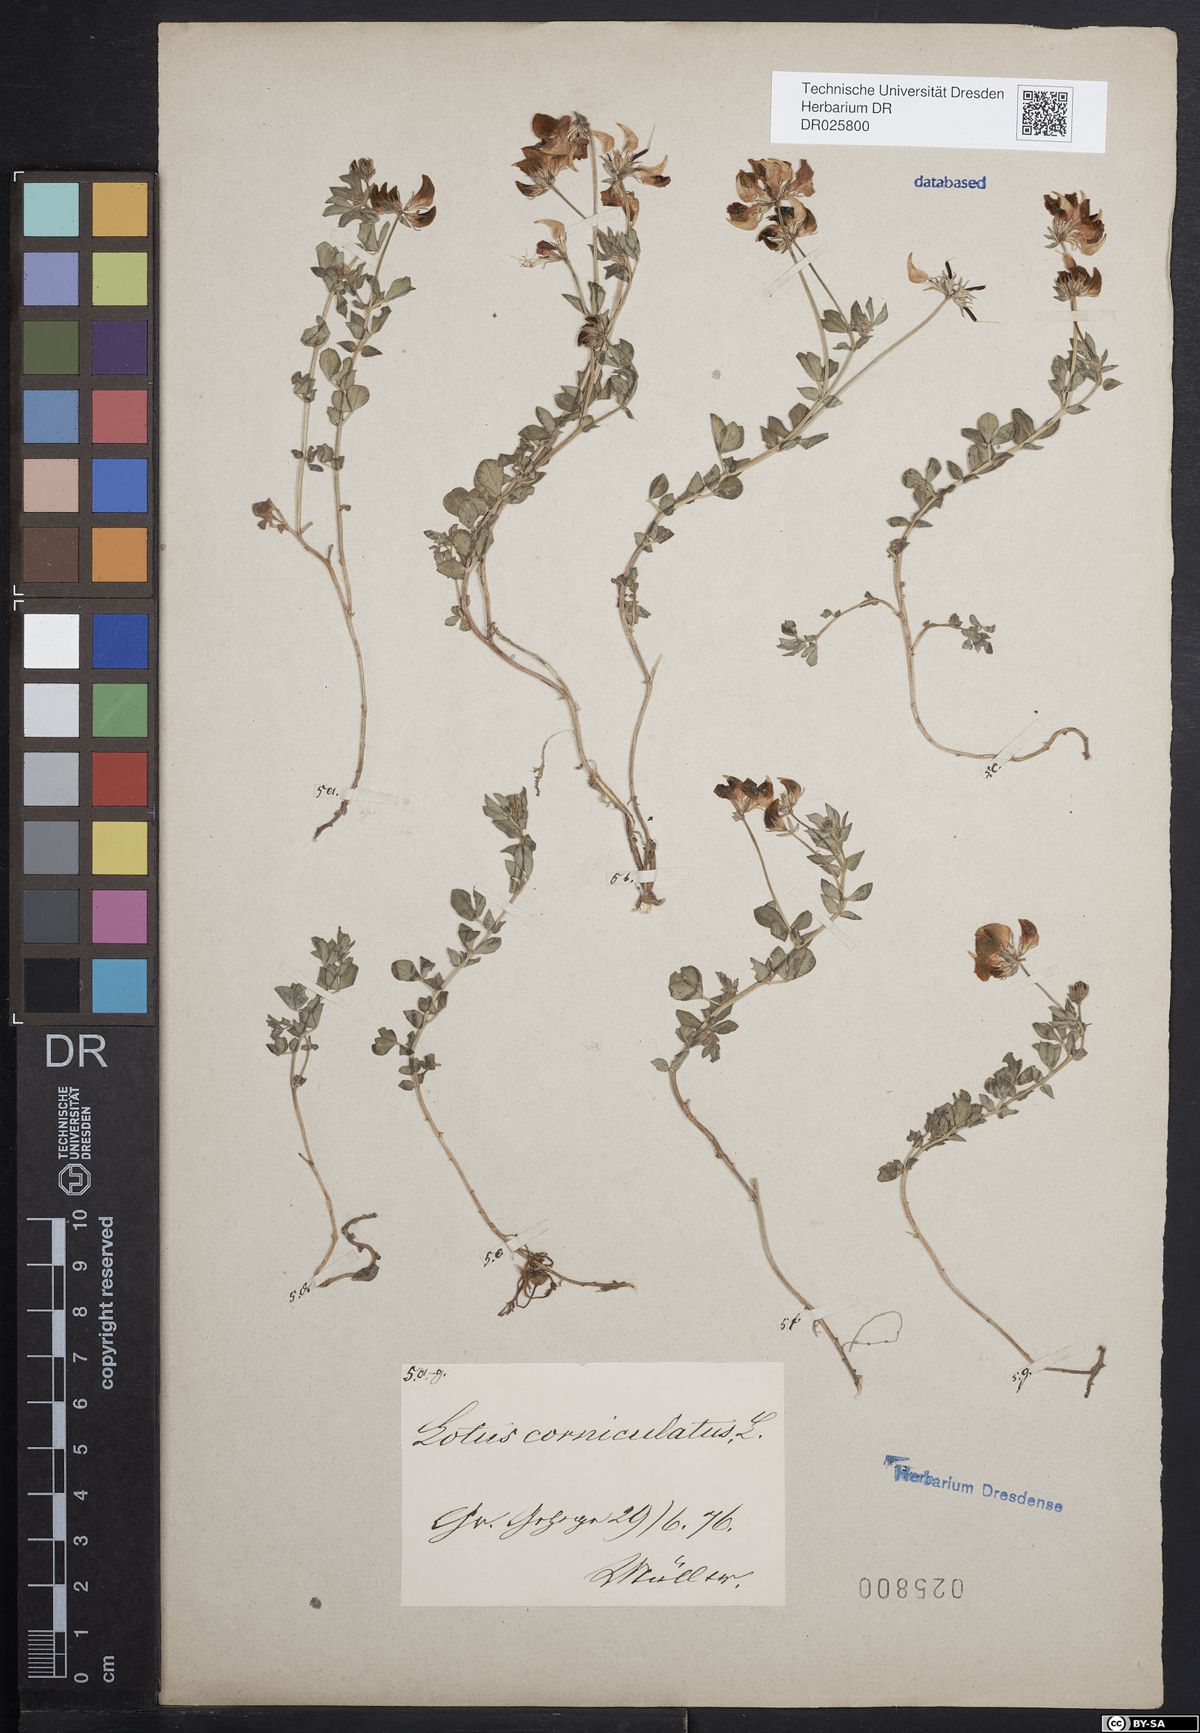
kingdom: Plantae
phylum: Tracheophyta
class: Magnoliopsida
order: Fabales
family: Fabaceae
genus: Lotus
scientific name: Lotus corniculatus
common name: Common bird's-foot-trefoil
